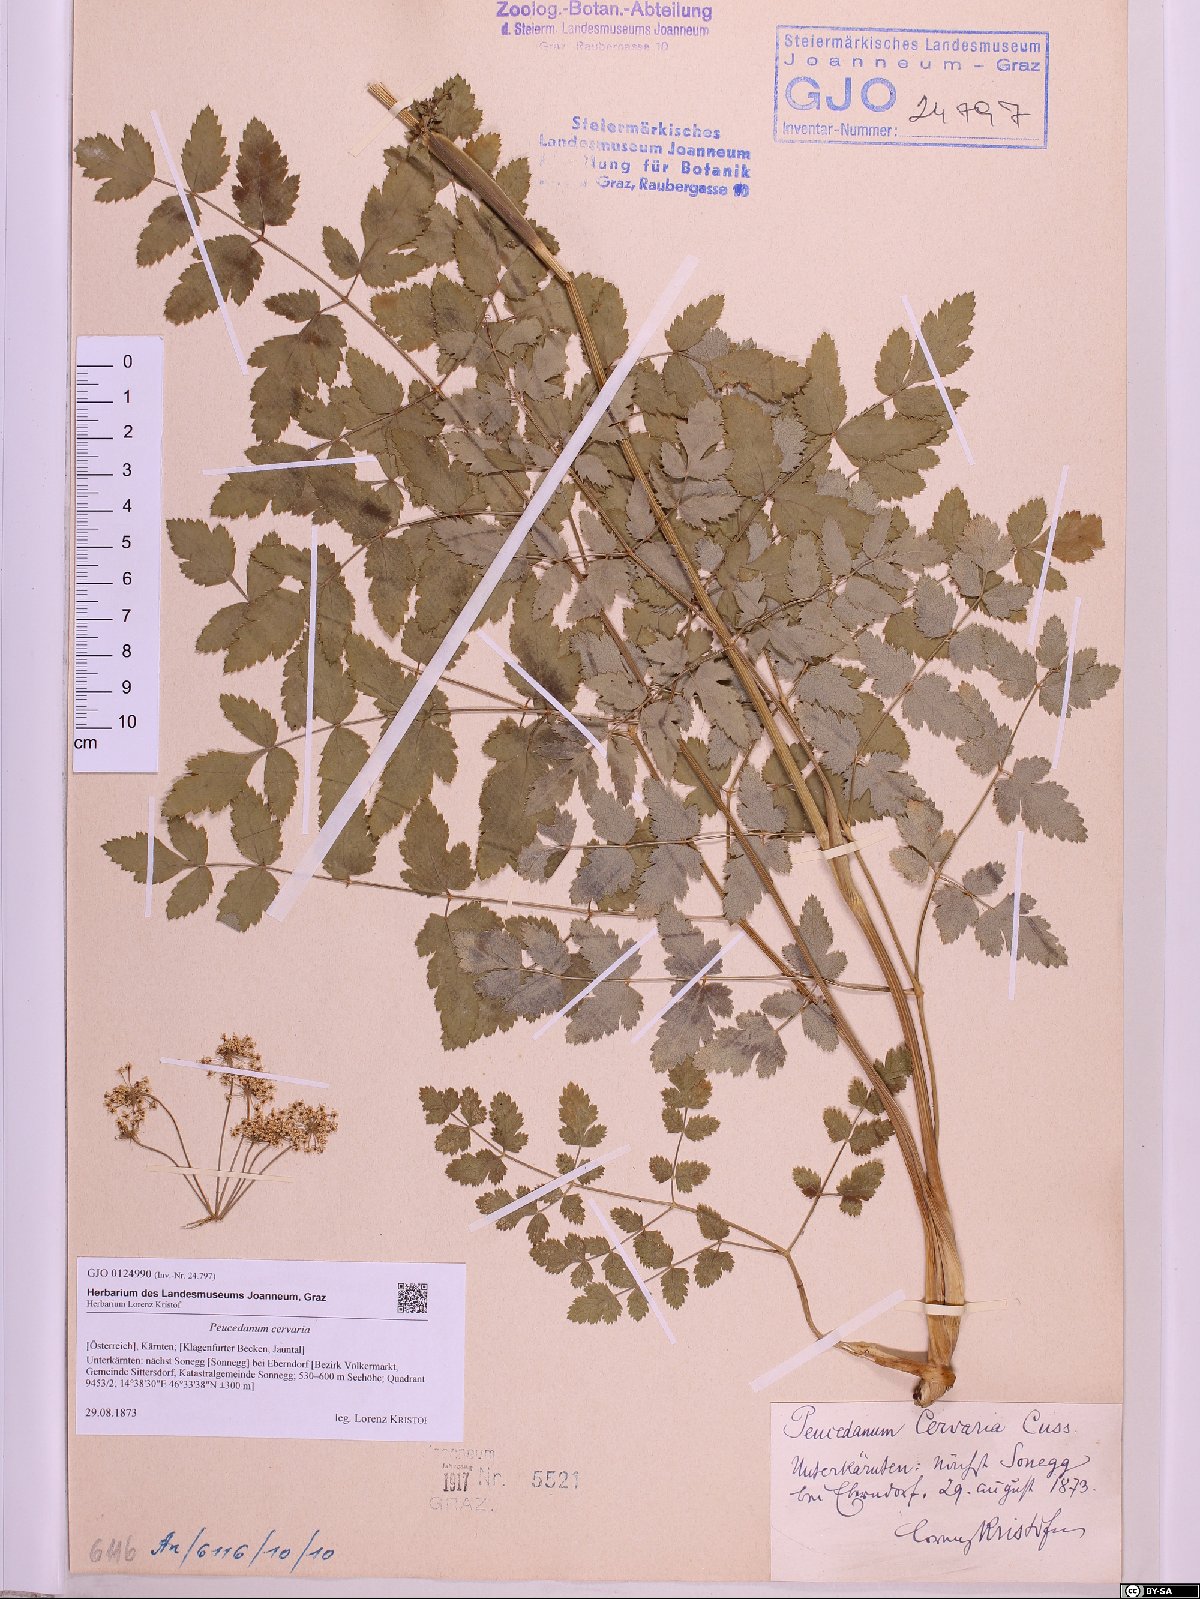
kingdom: Plantae
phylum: Tracheophyta
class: Magnoliopsida
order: Apiales
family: Apiaceae
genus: Cervaria
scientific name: Cervaria rivini
